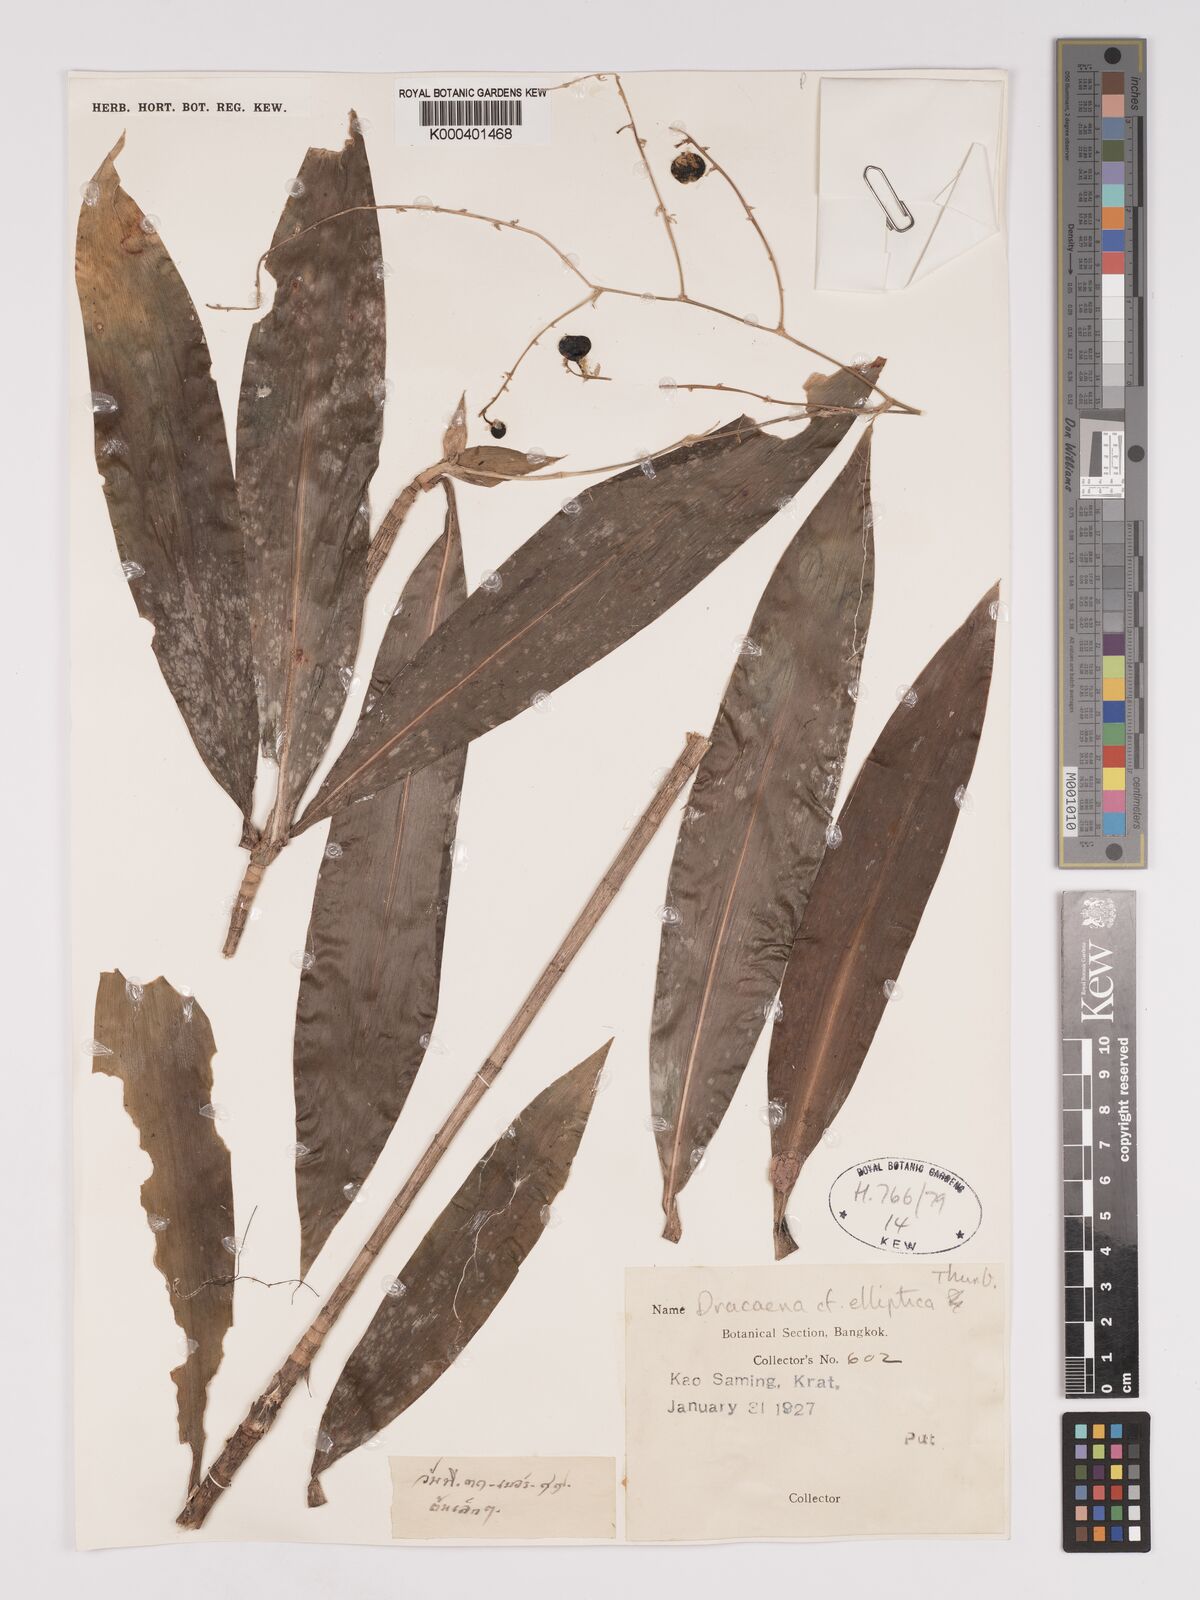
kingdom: Plantae
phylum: Tracheophyta
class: Liliopsida
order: Asparagales
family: Asparagaceae
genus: Dracaena
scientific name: Dracaena elliptica
